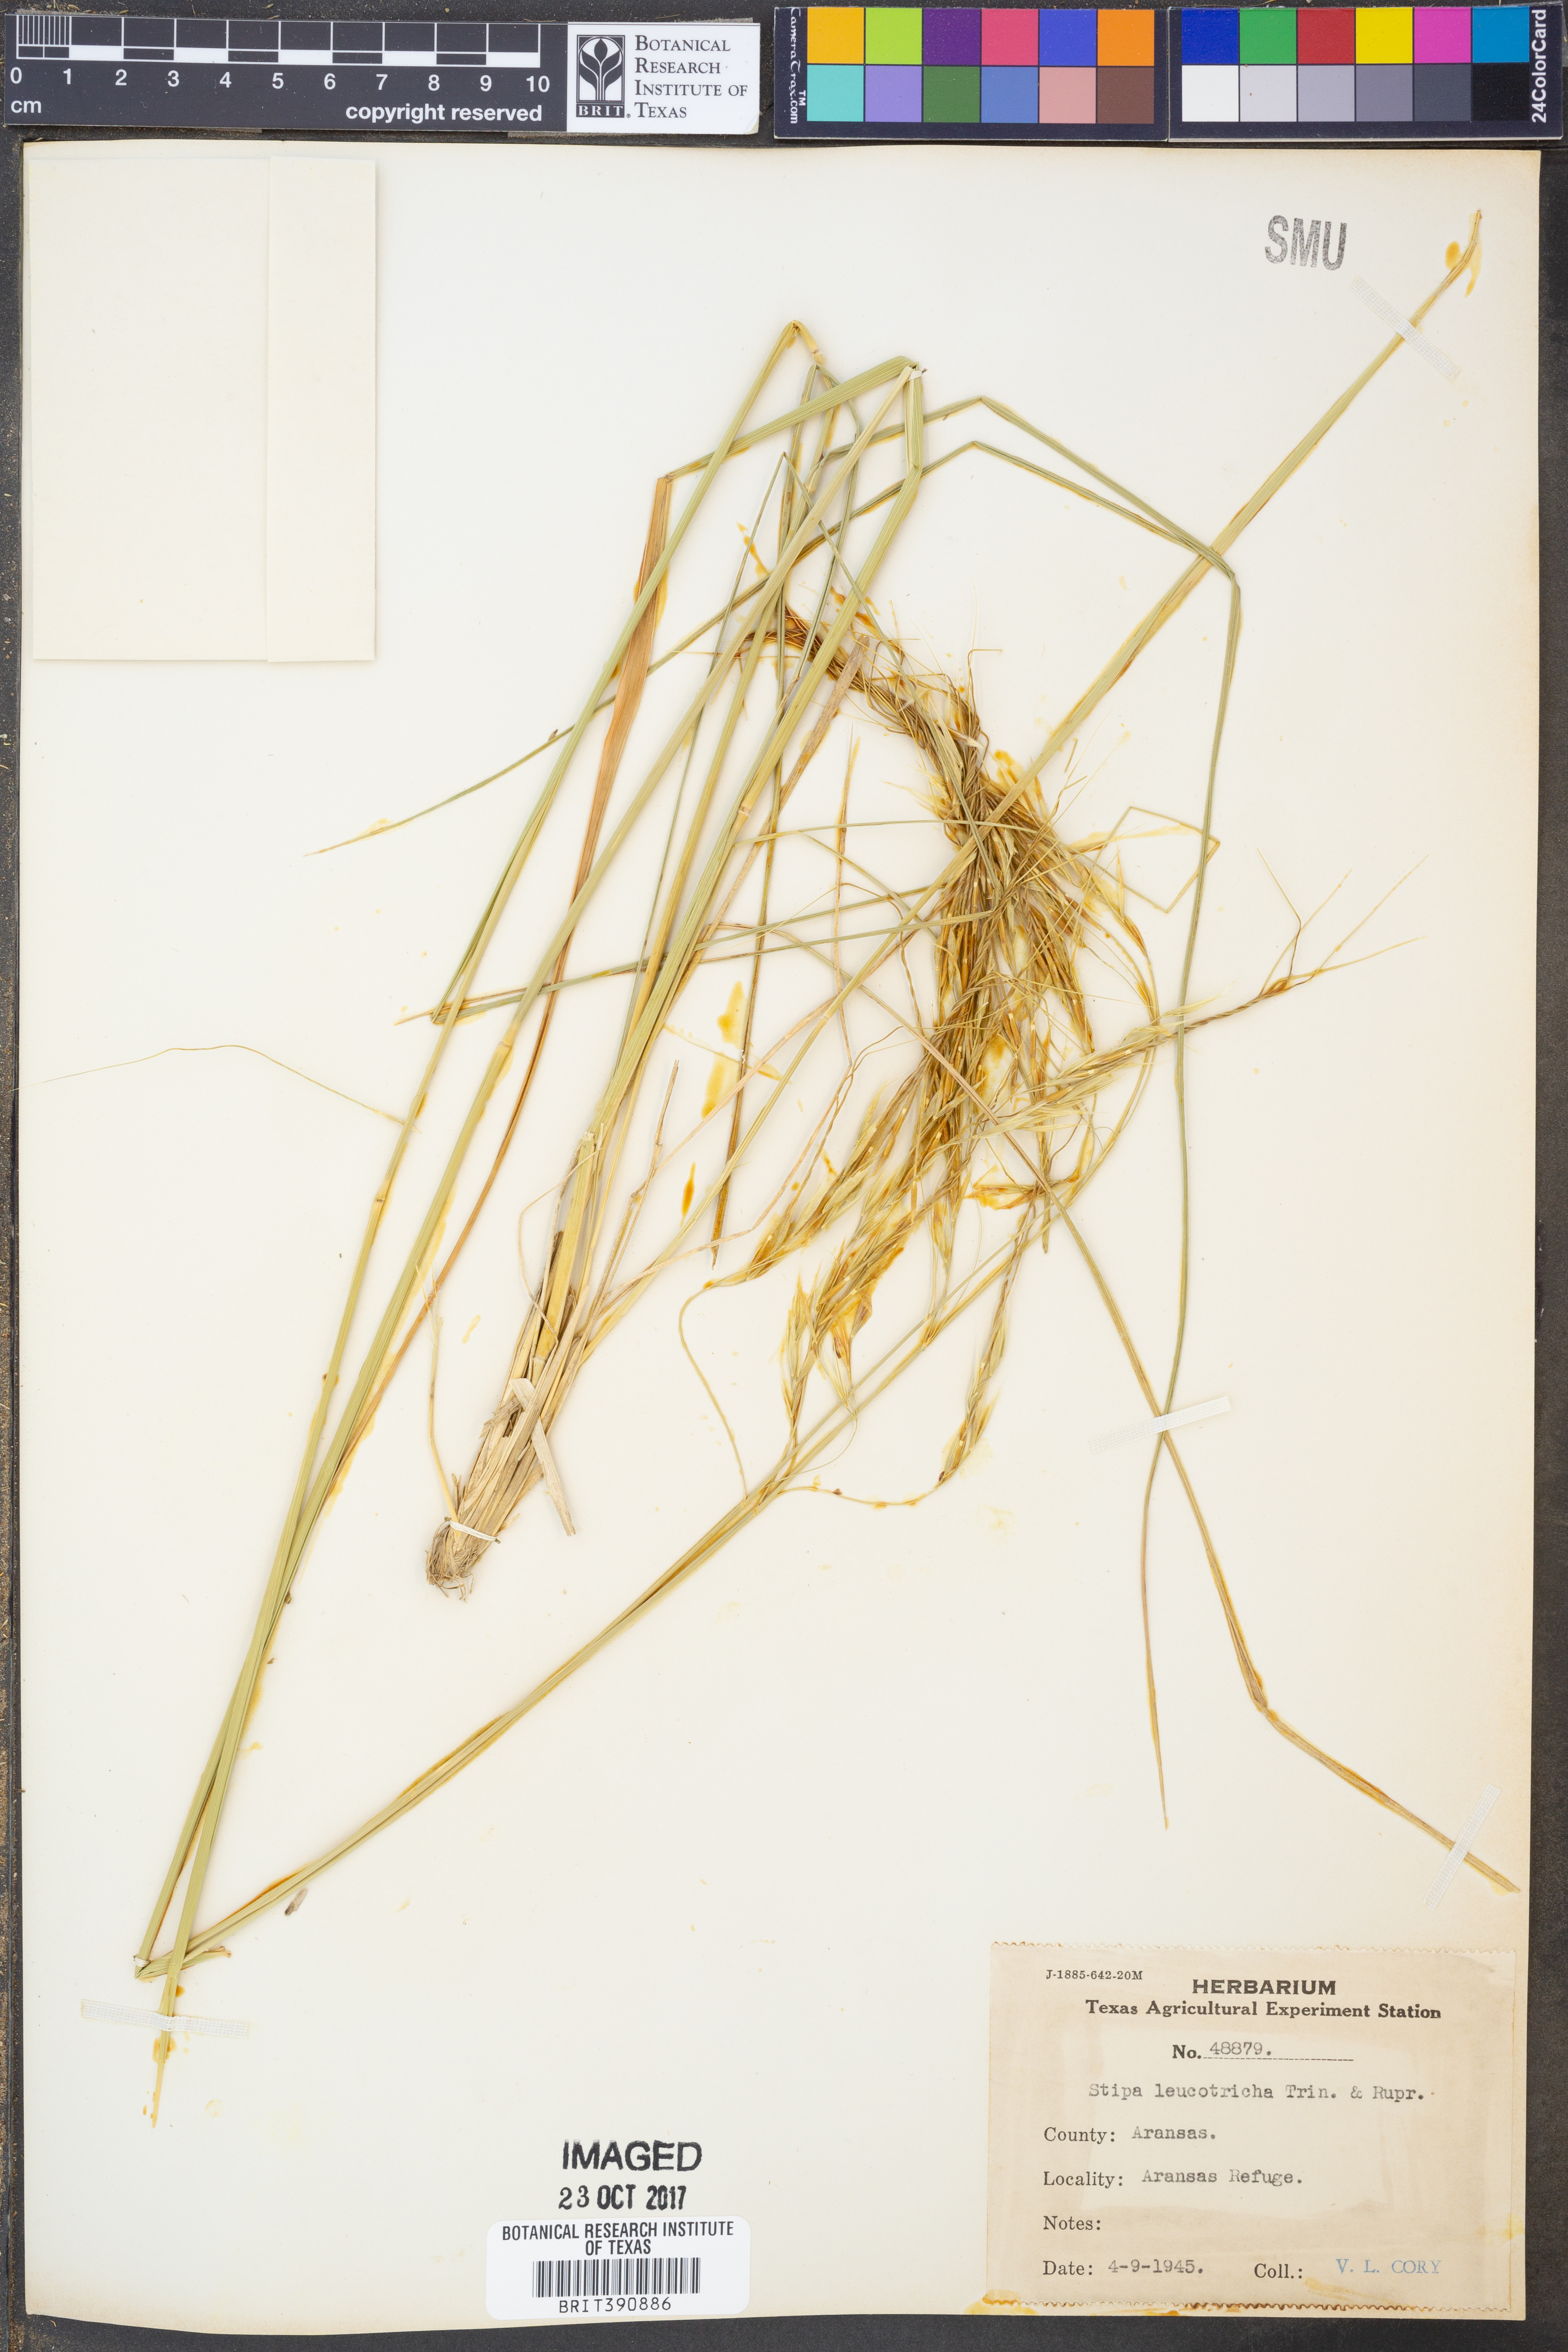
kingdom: Plantae
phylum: Tracheophyta
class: Liliopsida
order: Poales
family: Poaceae
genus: Nassella
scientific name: Nassella leucotricha
